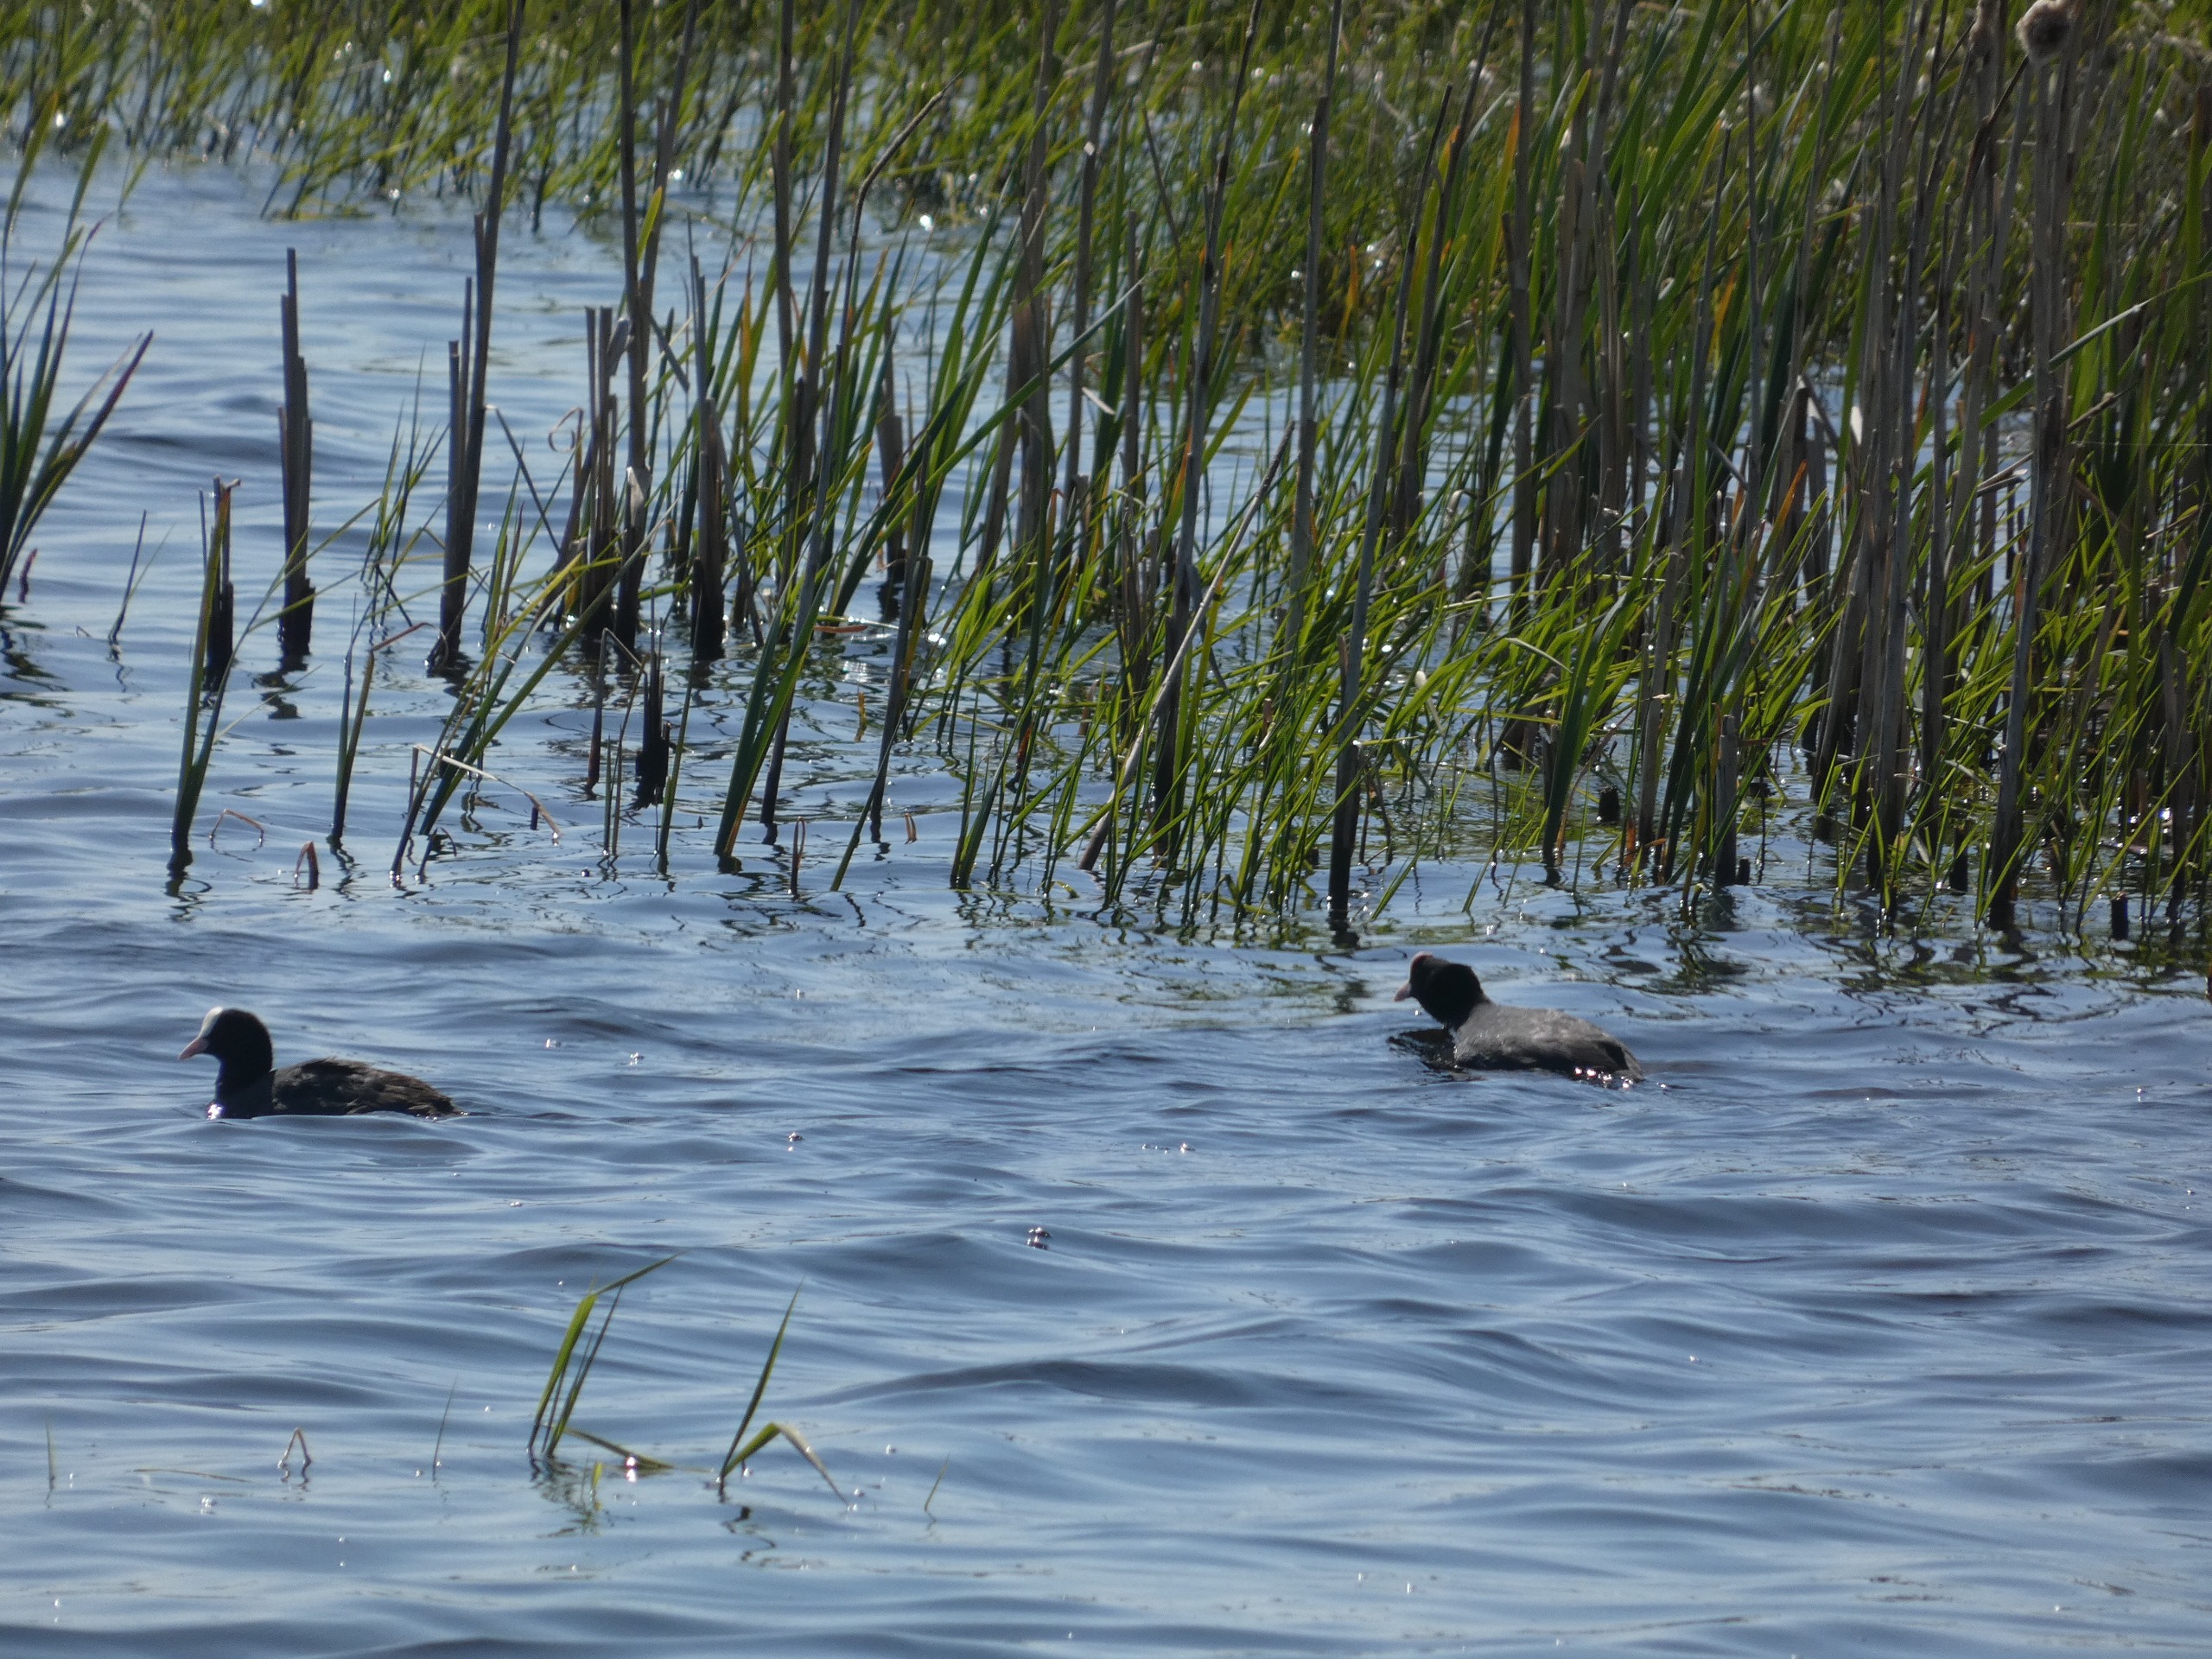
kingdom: Animalia
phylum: Chordata
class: Aves
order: Gruiformes
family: Rallidae
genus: Fulica
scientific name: Fulica atra
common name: Blishøne
